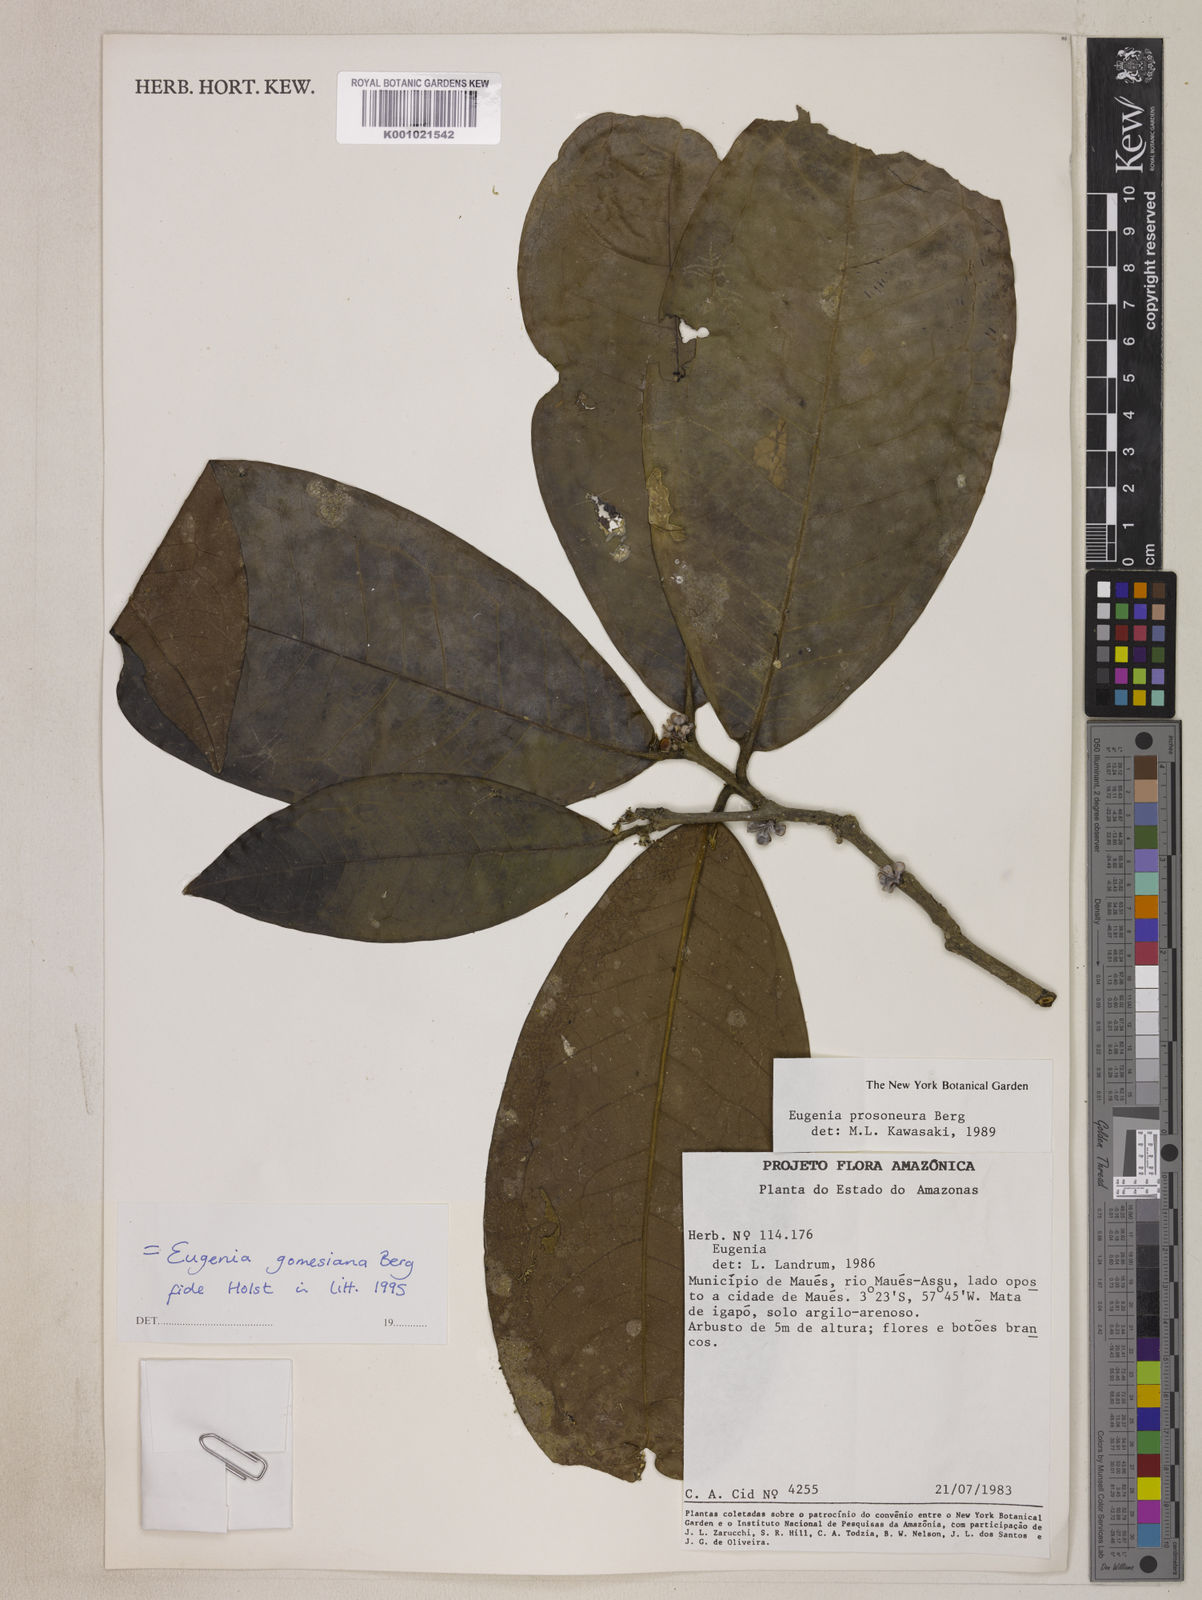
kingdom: Plantae
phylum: Tracheophyta
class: Magnoliopsida
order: Myrtales
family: Myrtaceae
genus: Eugenia
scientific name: Eugenia gomesiana
